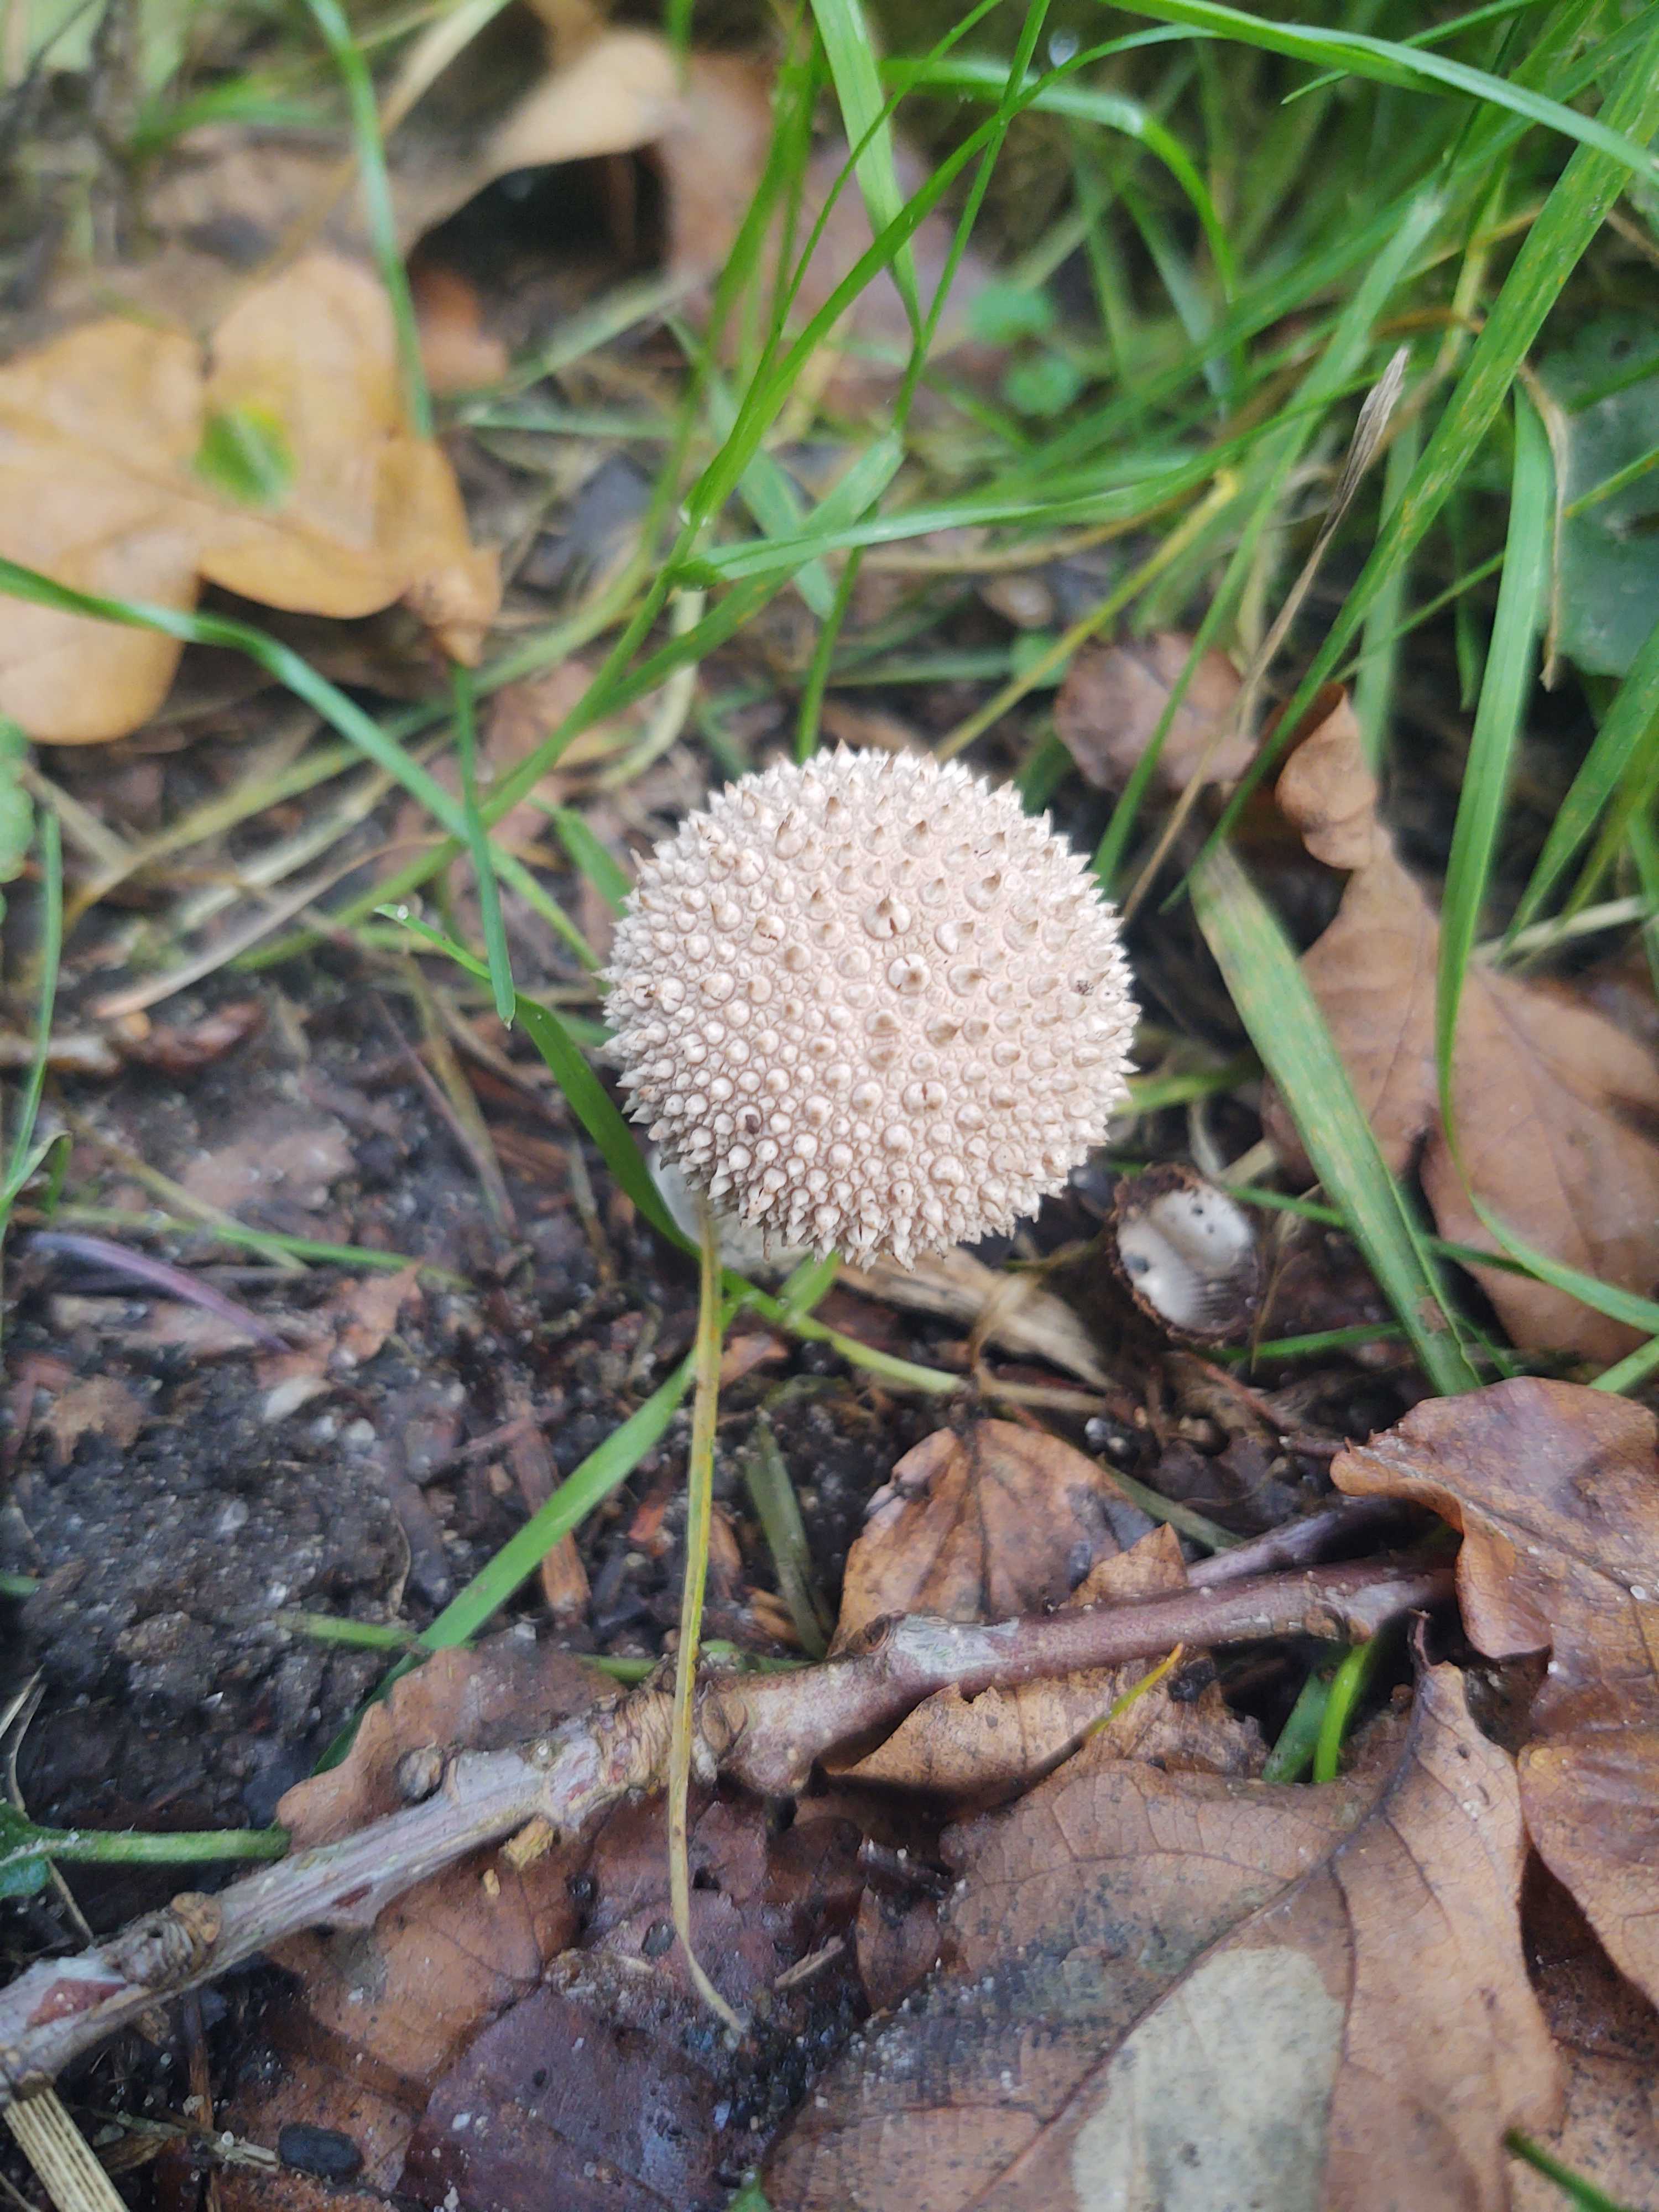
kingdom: Fungi
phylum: Basidiomycota
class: Agaricomycetes
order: Agaricales
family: Lycoperdaceae
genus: Lycoperdon
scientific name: Lycoperdon perlatum
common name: krystal-støvbold
